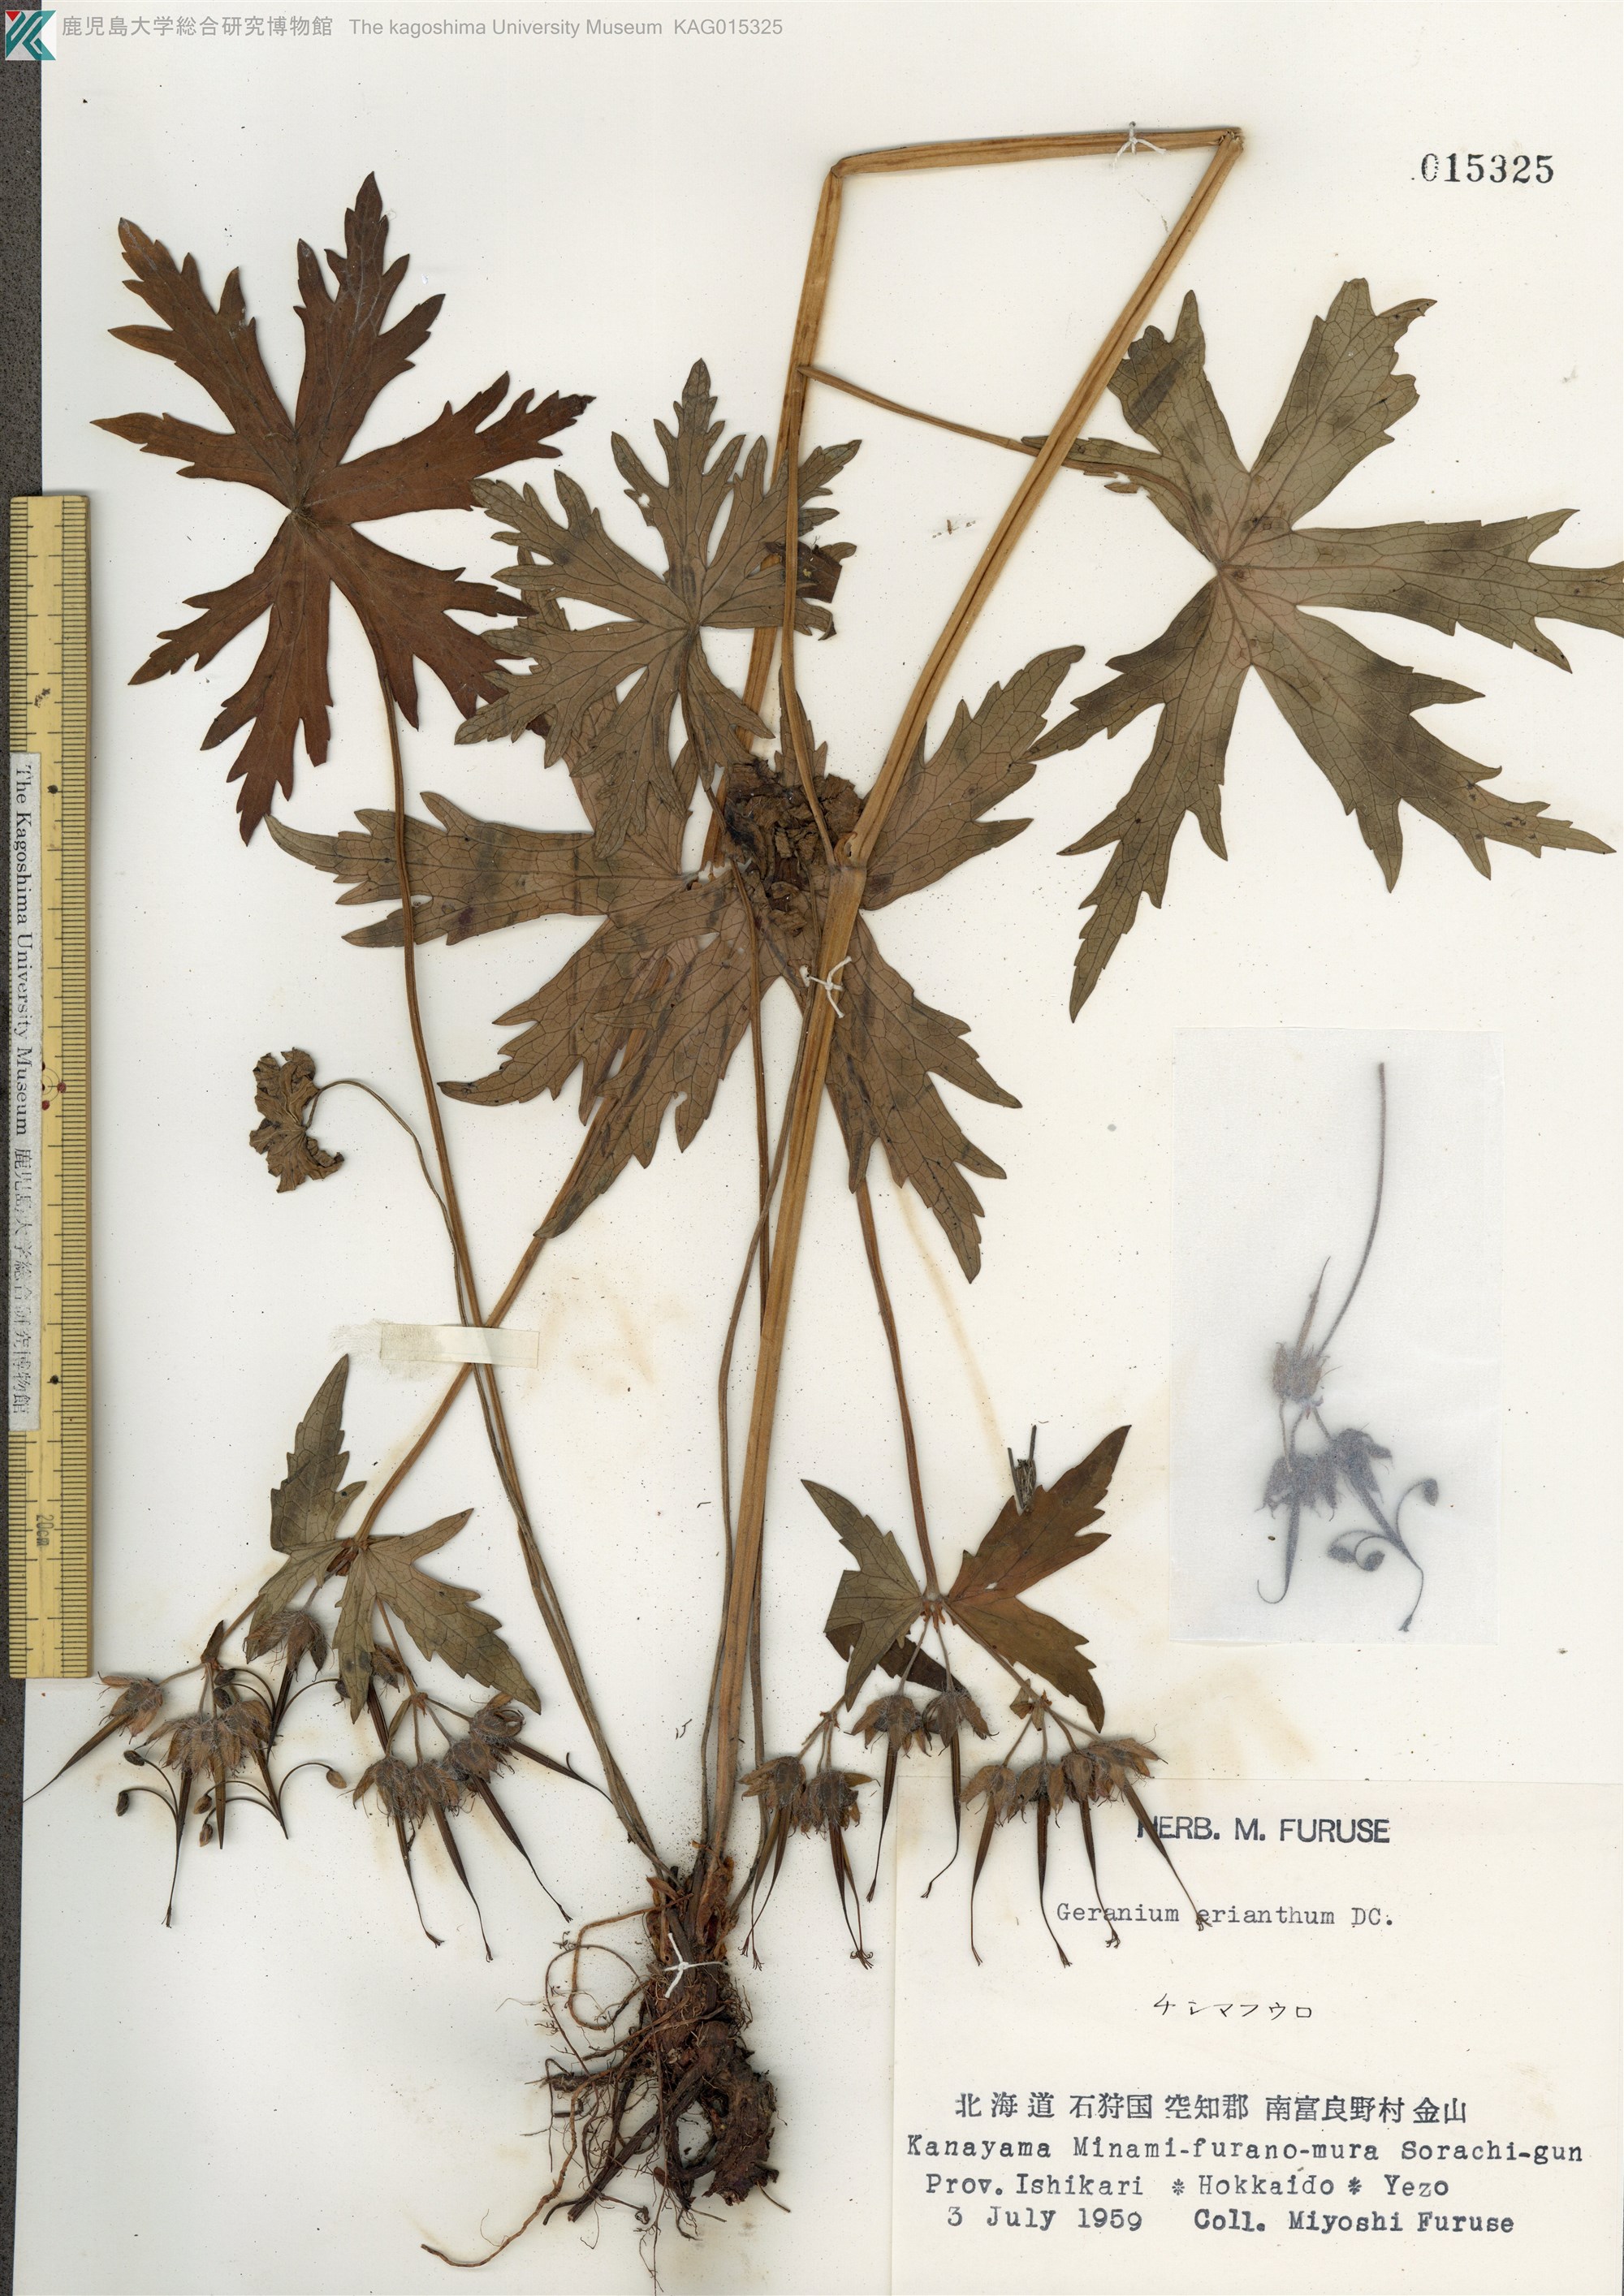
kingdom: Plantae
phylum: Tracheophyta
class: Magnoliopsida
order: Geraniales
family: Geraniaceae
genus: Geranium
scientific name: Geranium erianthum
